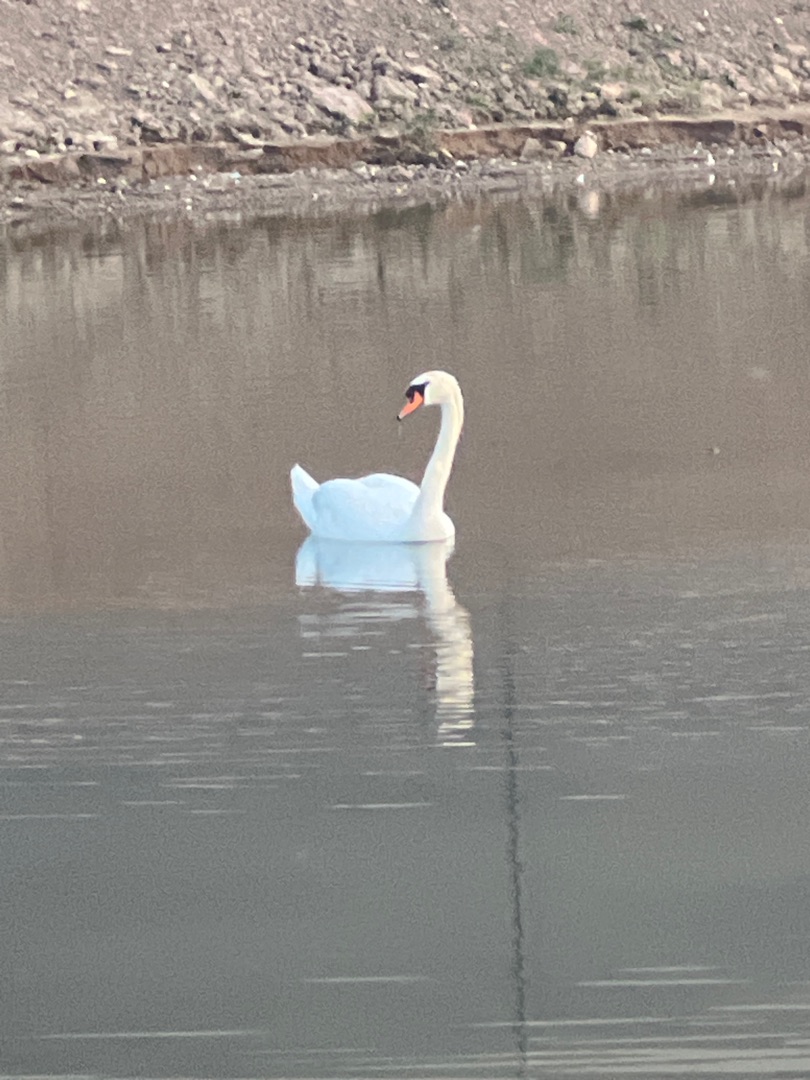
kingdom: Animalia
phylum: Chordata
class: Aves
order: Anseriformes
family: Anatidae
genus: Cygnus
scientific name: Cygnus olor
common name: Knopsvane
